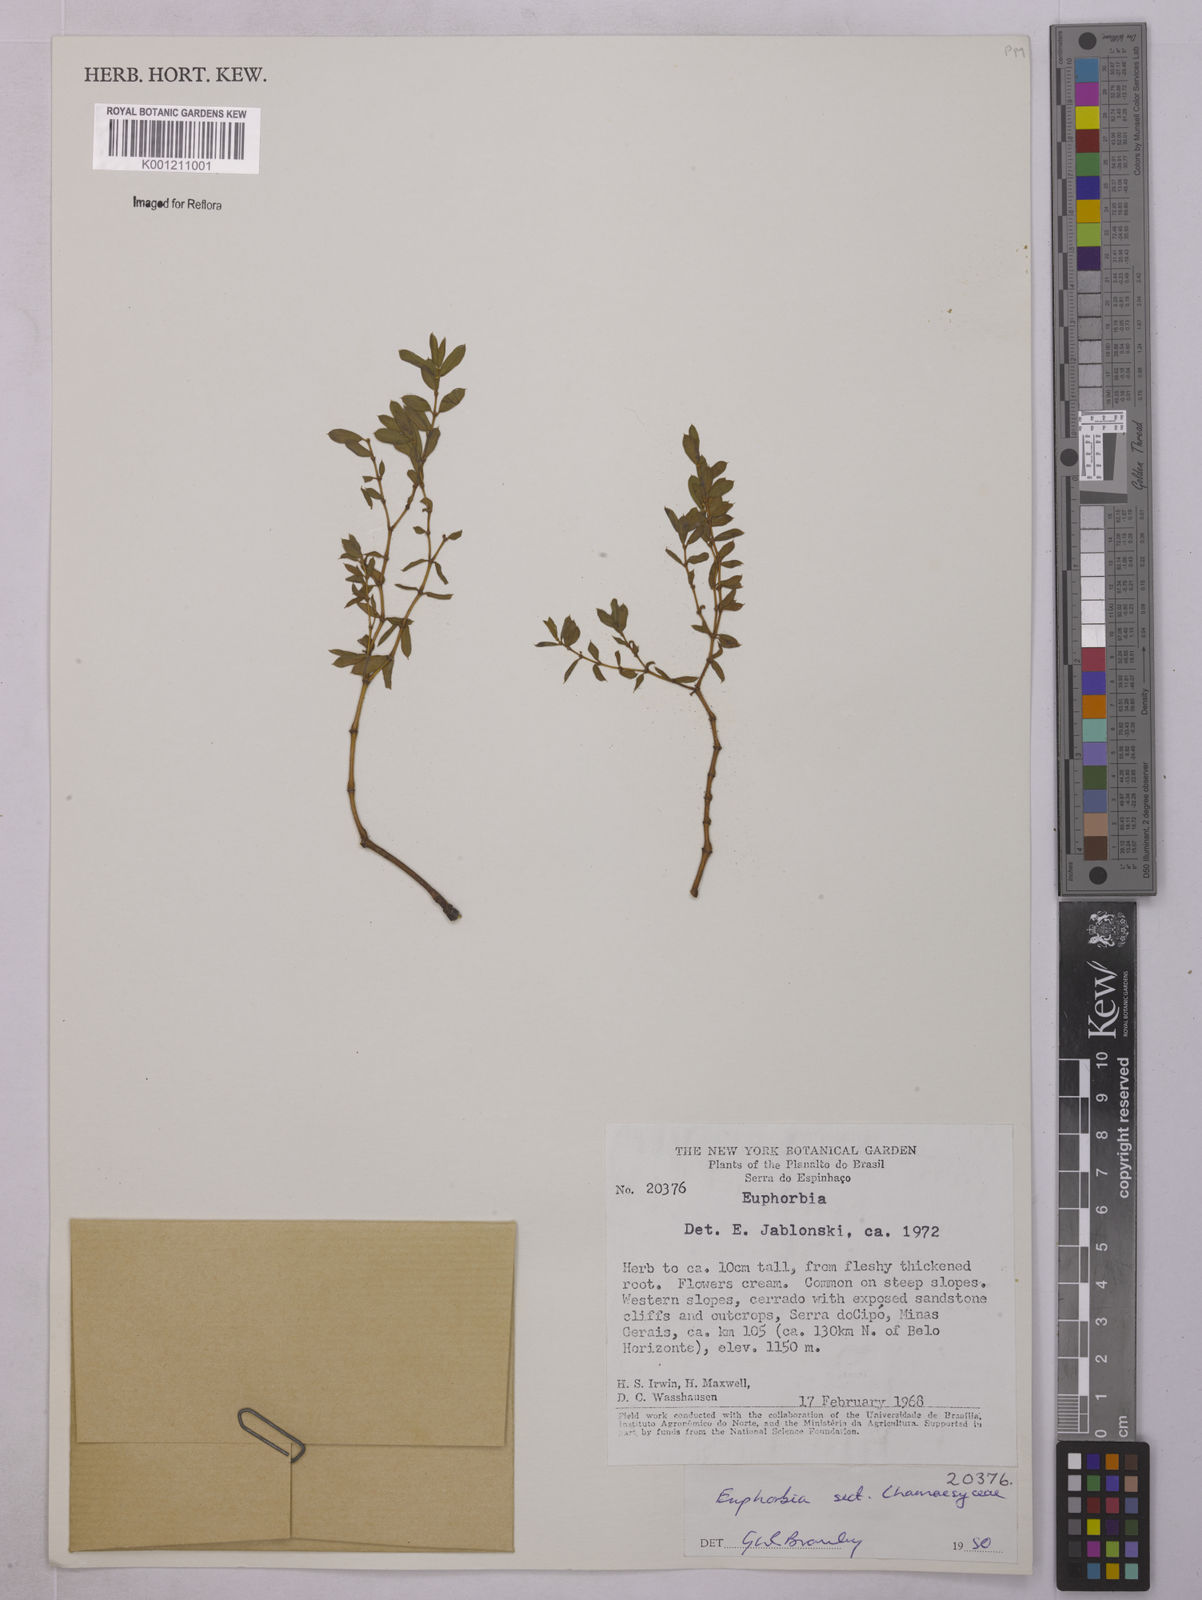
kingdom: Plantae
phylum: Tracheophyta
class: Magnoliopsida
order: Malpighiales
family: Euphorbiaceae
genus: Euphorbia
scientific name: Euphorbia
